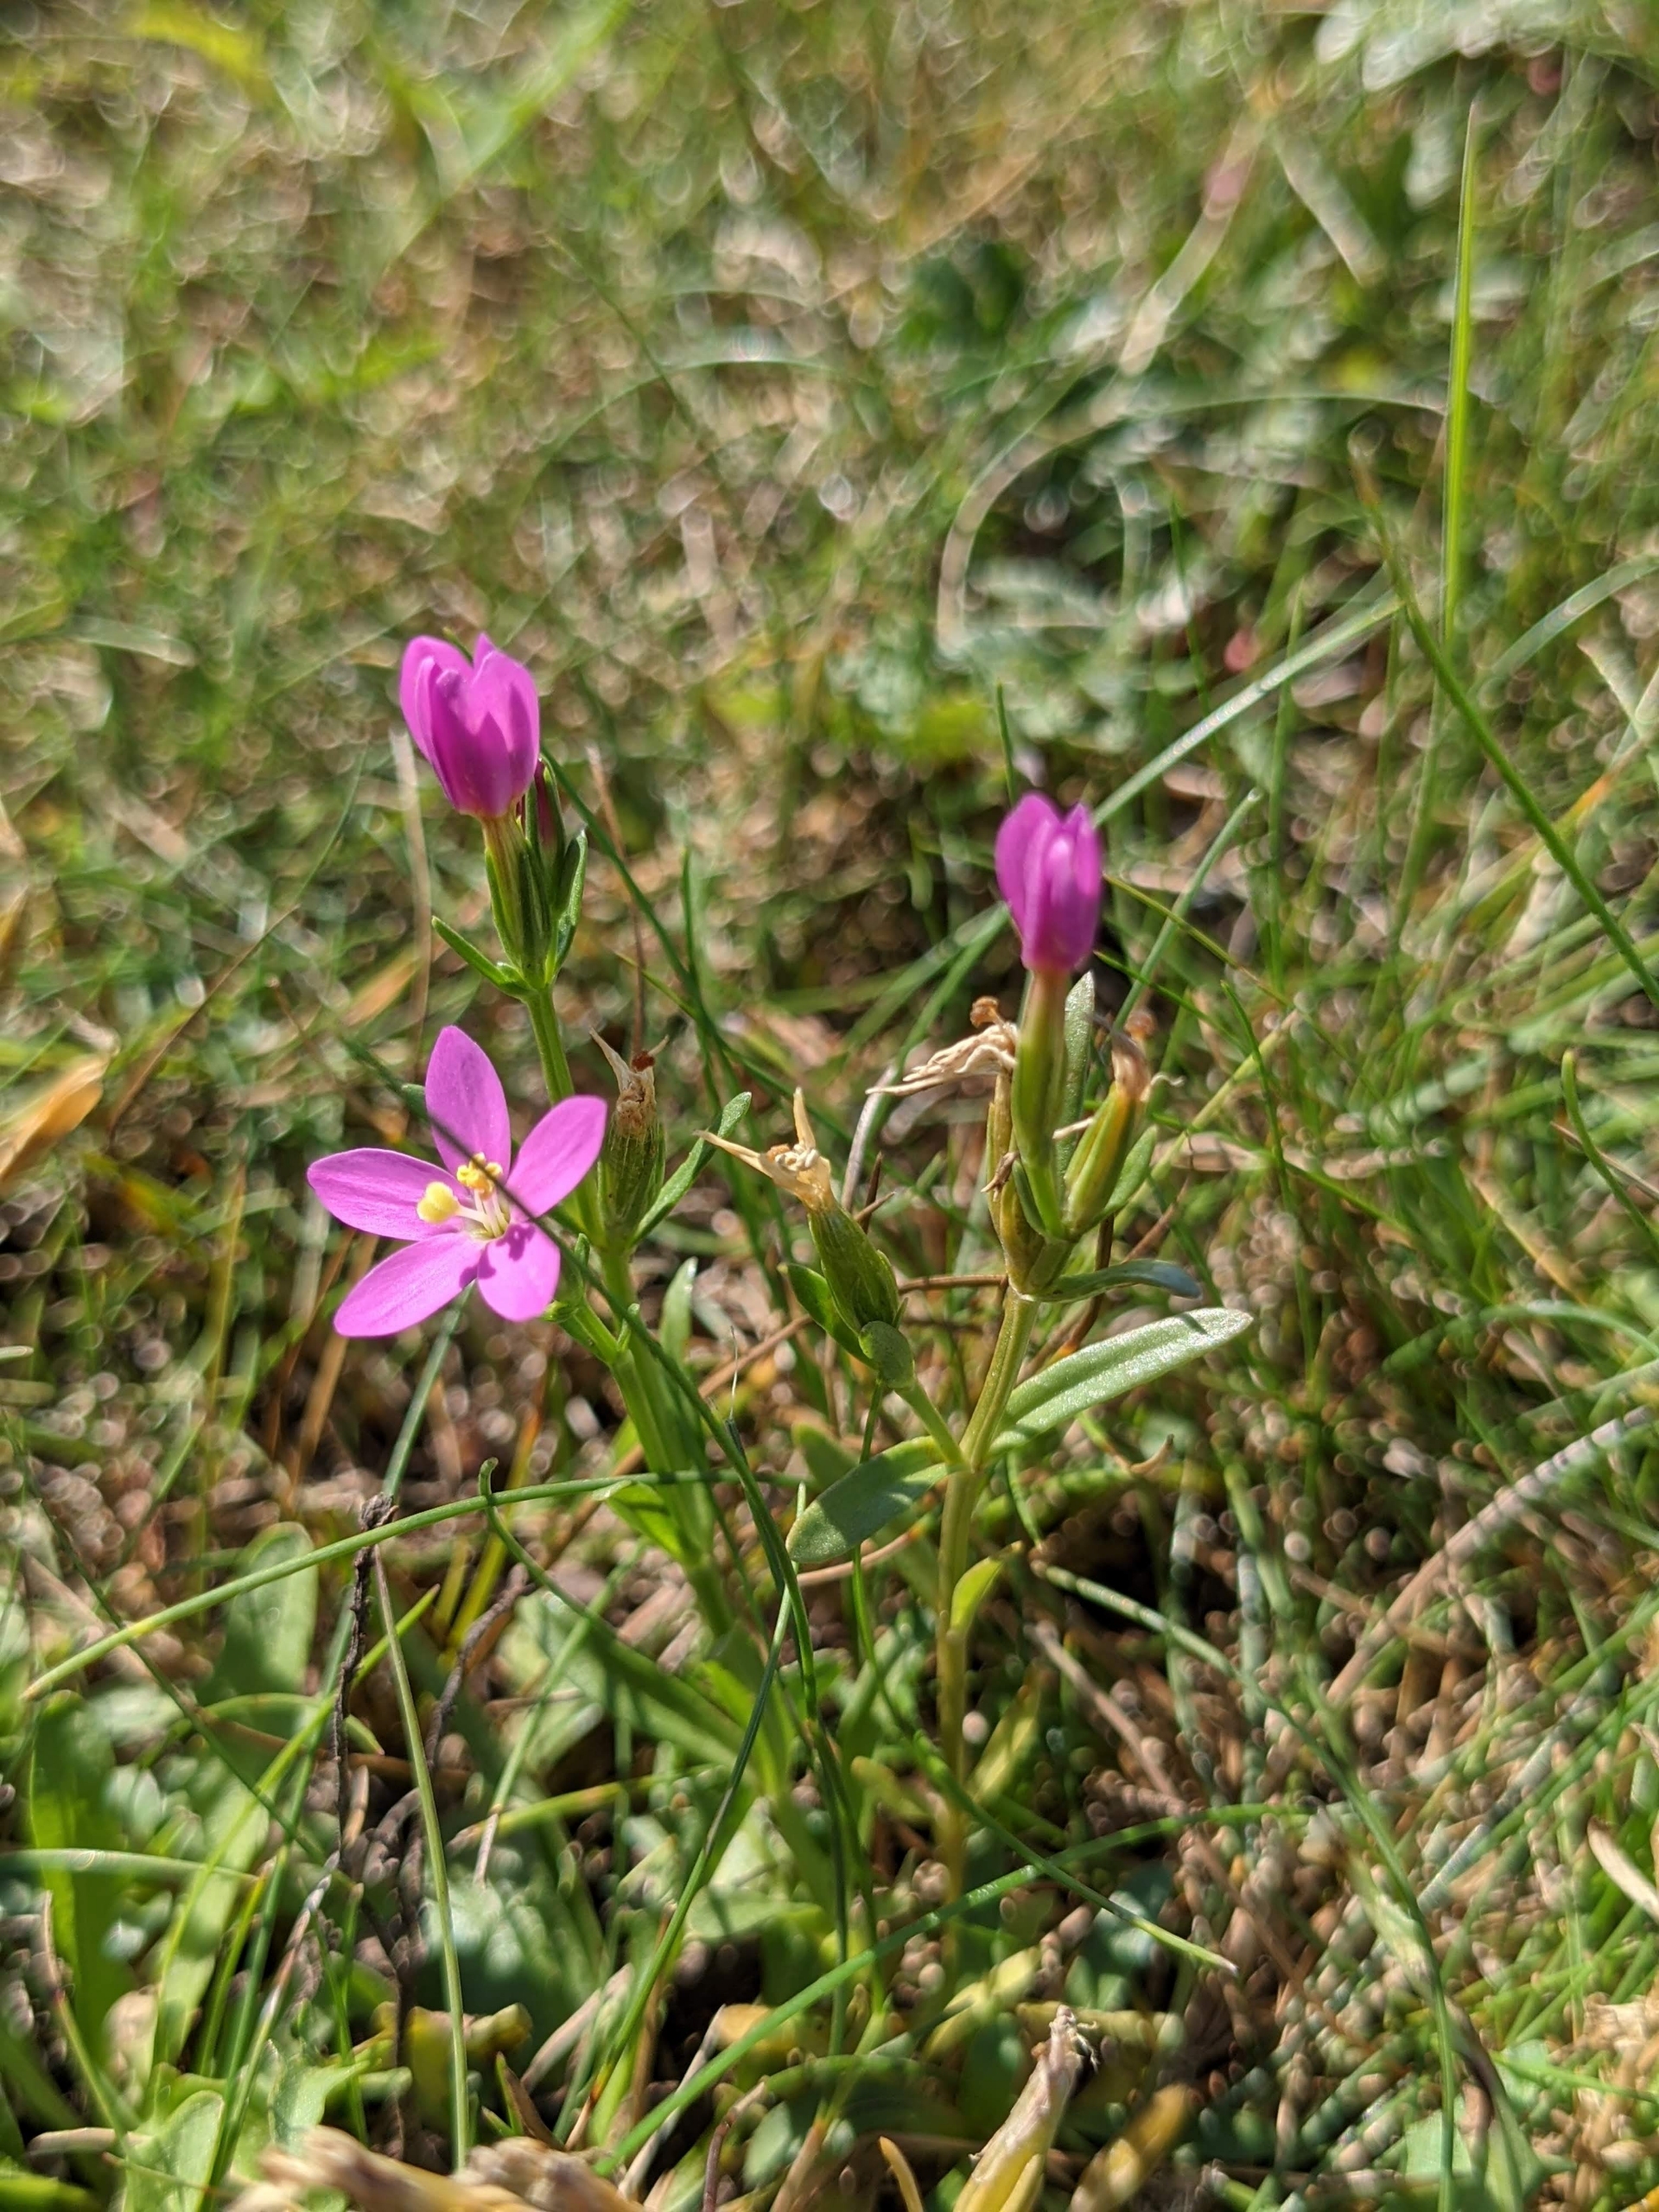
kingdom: Plantae
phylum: Tracheophyta
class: Magnoliopsida
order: Gentianales
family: Gentianaceae
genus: Centaurium
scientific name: Centaurium littorale
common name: Strand-tusindgylden
